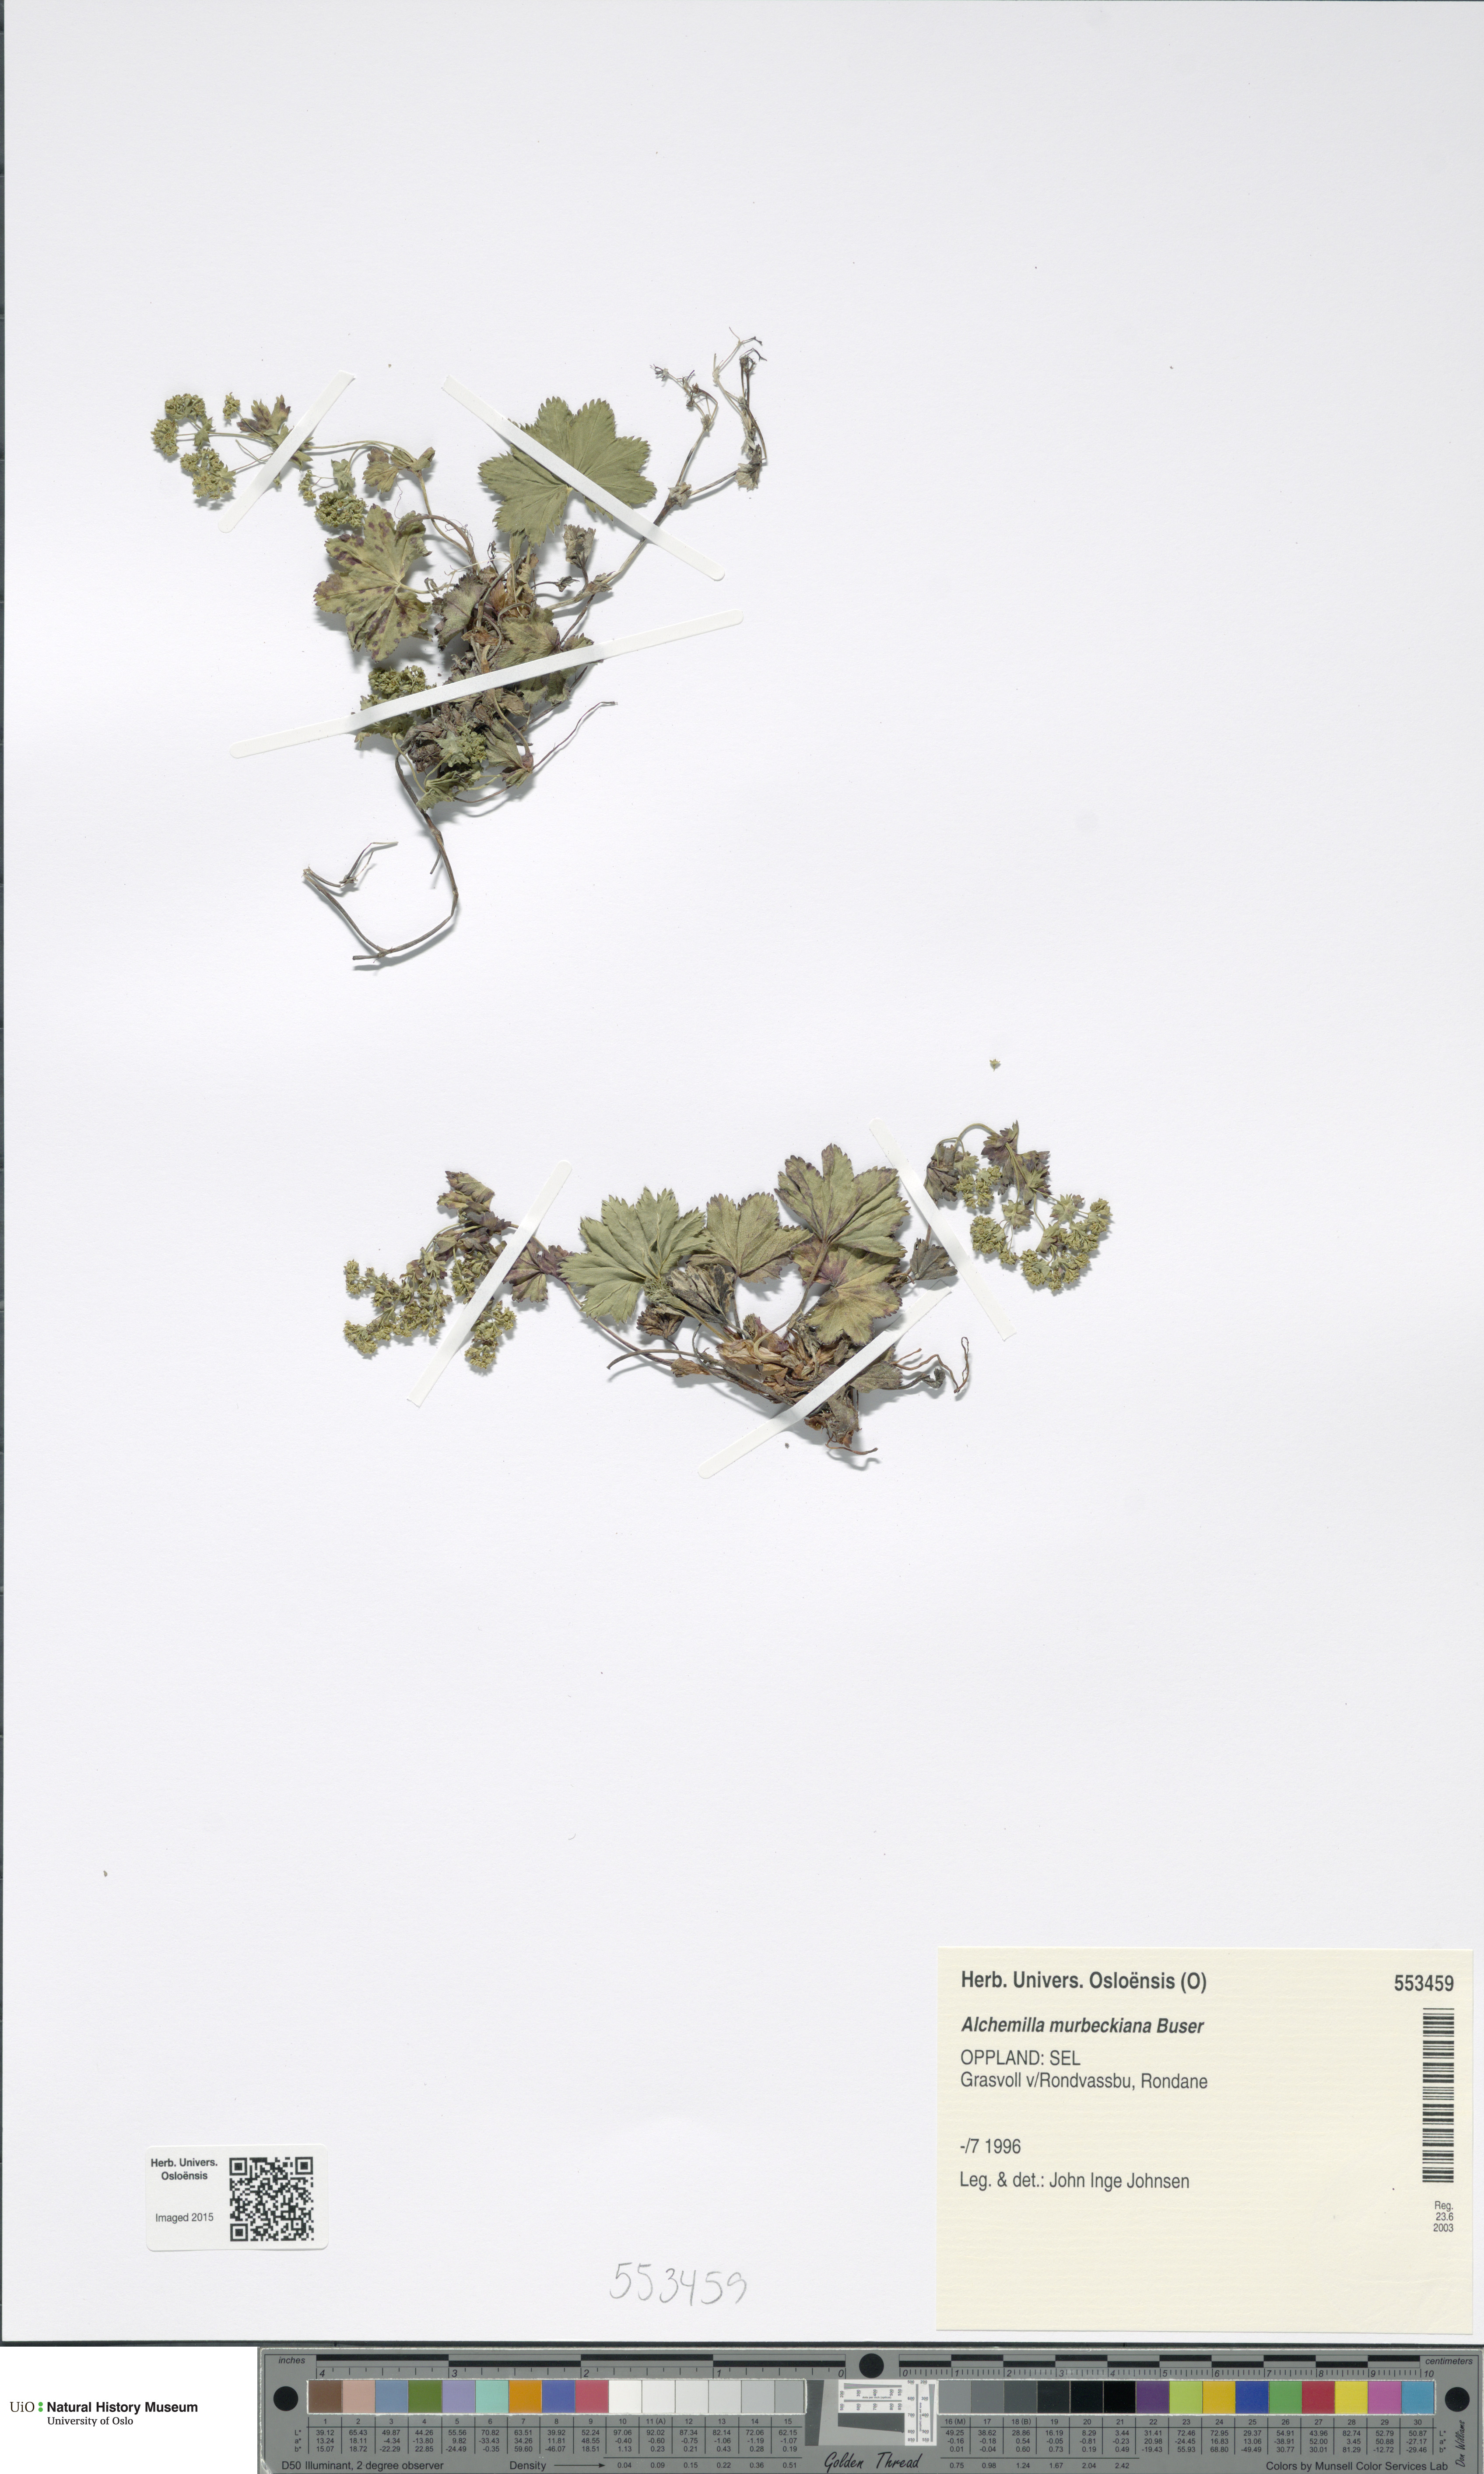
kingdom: Plantae
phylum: Tracheophyta
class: Magnoliopsida
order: Rosales
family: Rosaceae
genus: Alchemilla
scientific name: Alchemilla murbeckiana
